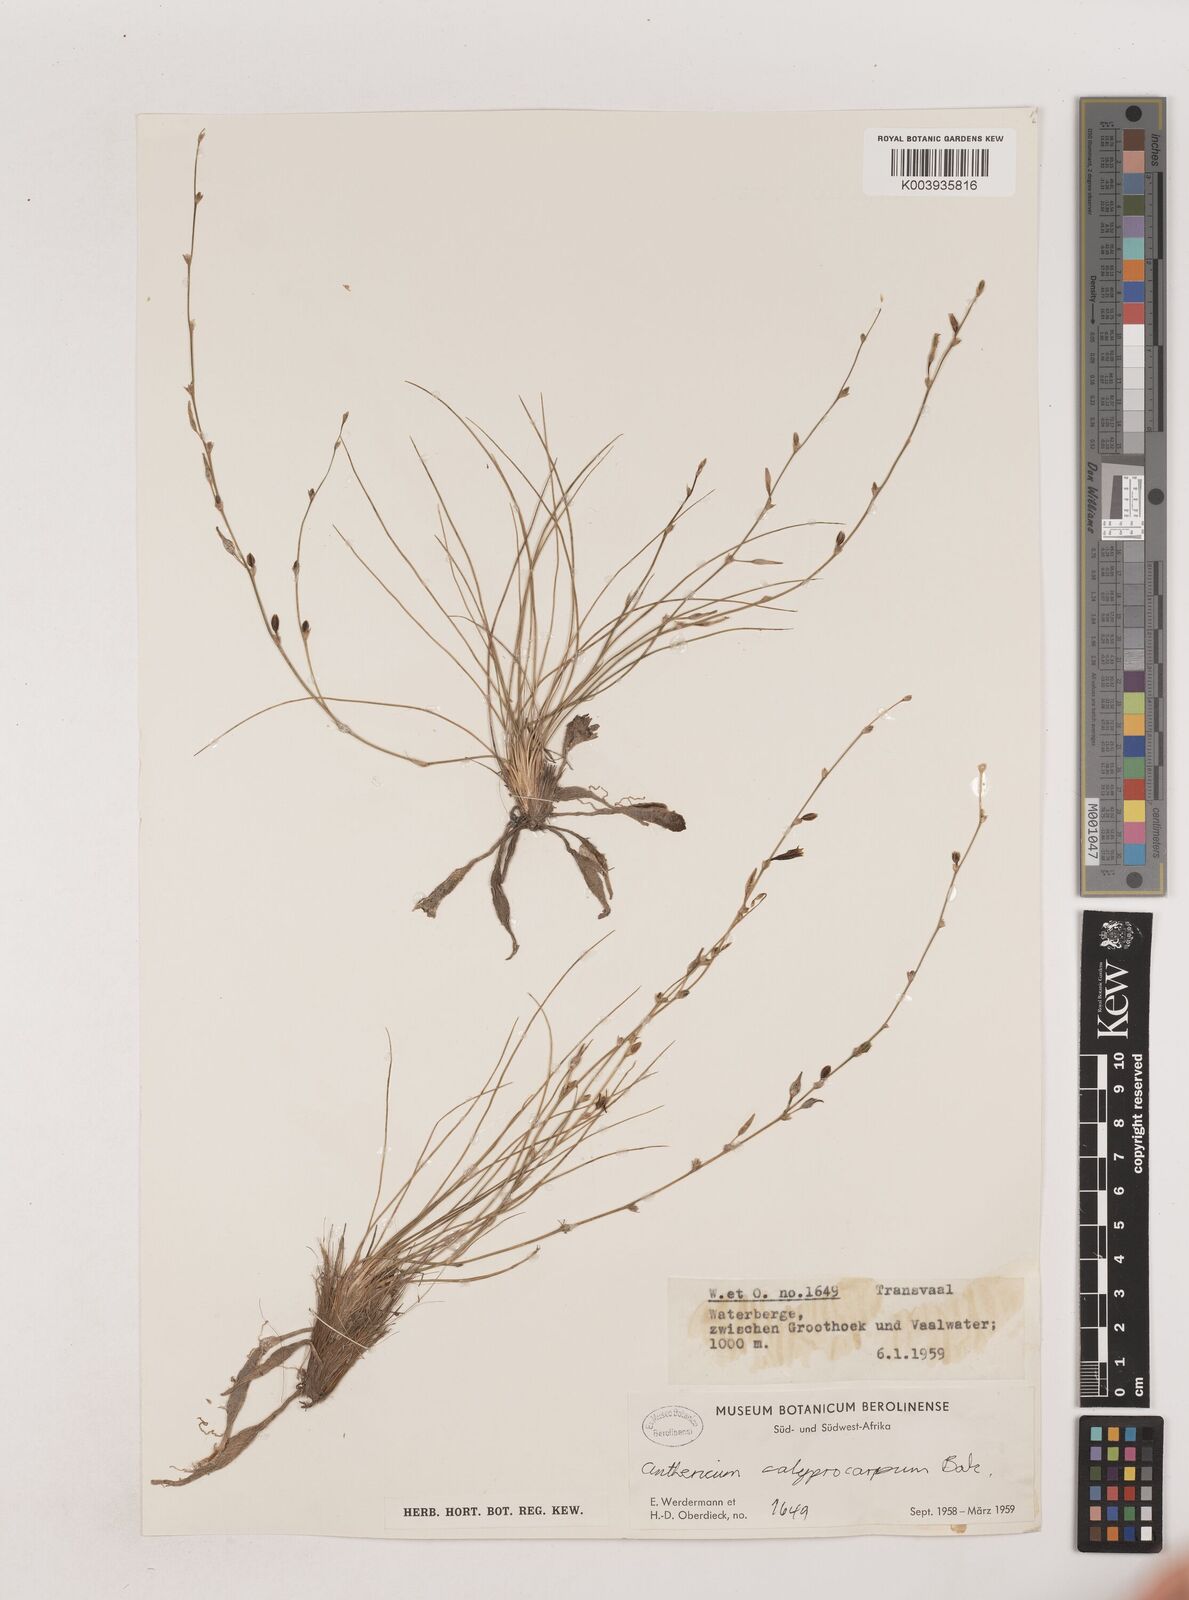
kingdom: Plantae
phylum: Tracheophyta
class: Liliopsida
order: Asparagales
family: Asparagaceae
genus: Chlorophytum
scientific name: Chlorophytum calyptrocarpum
